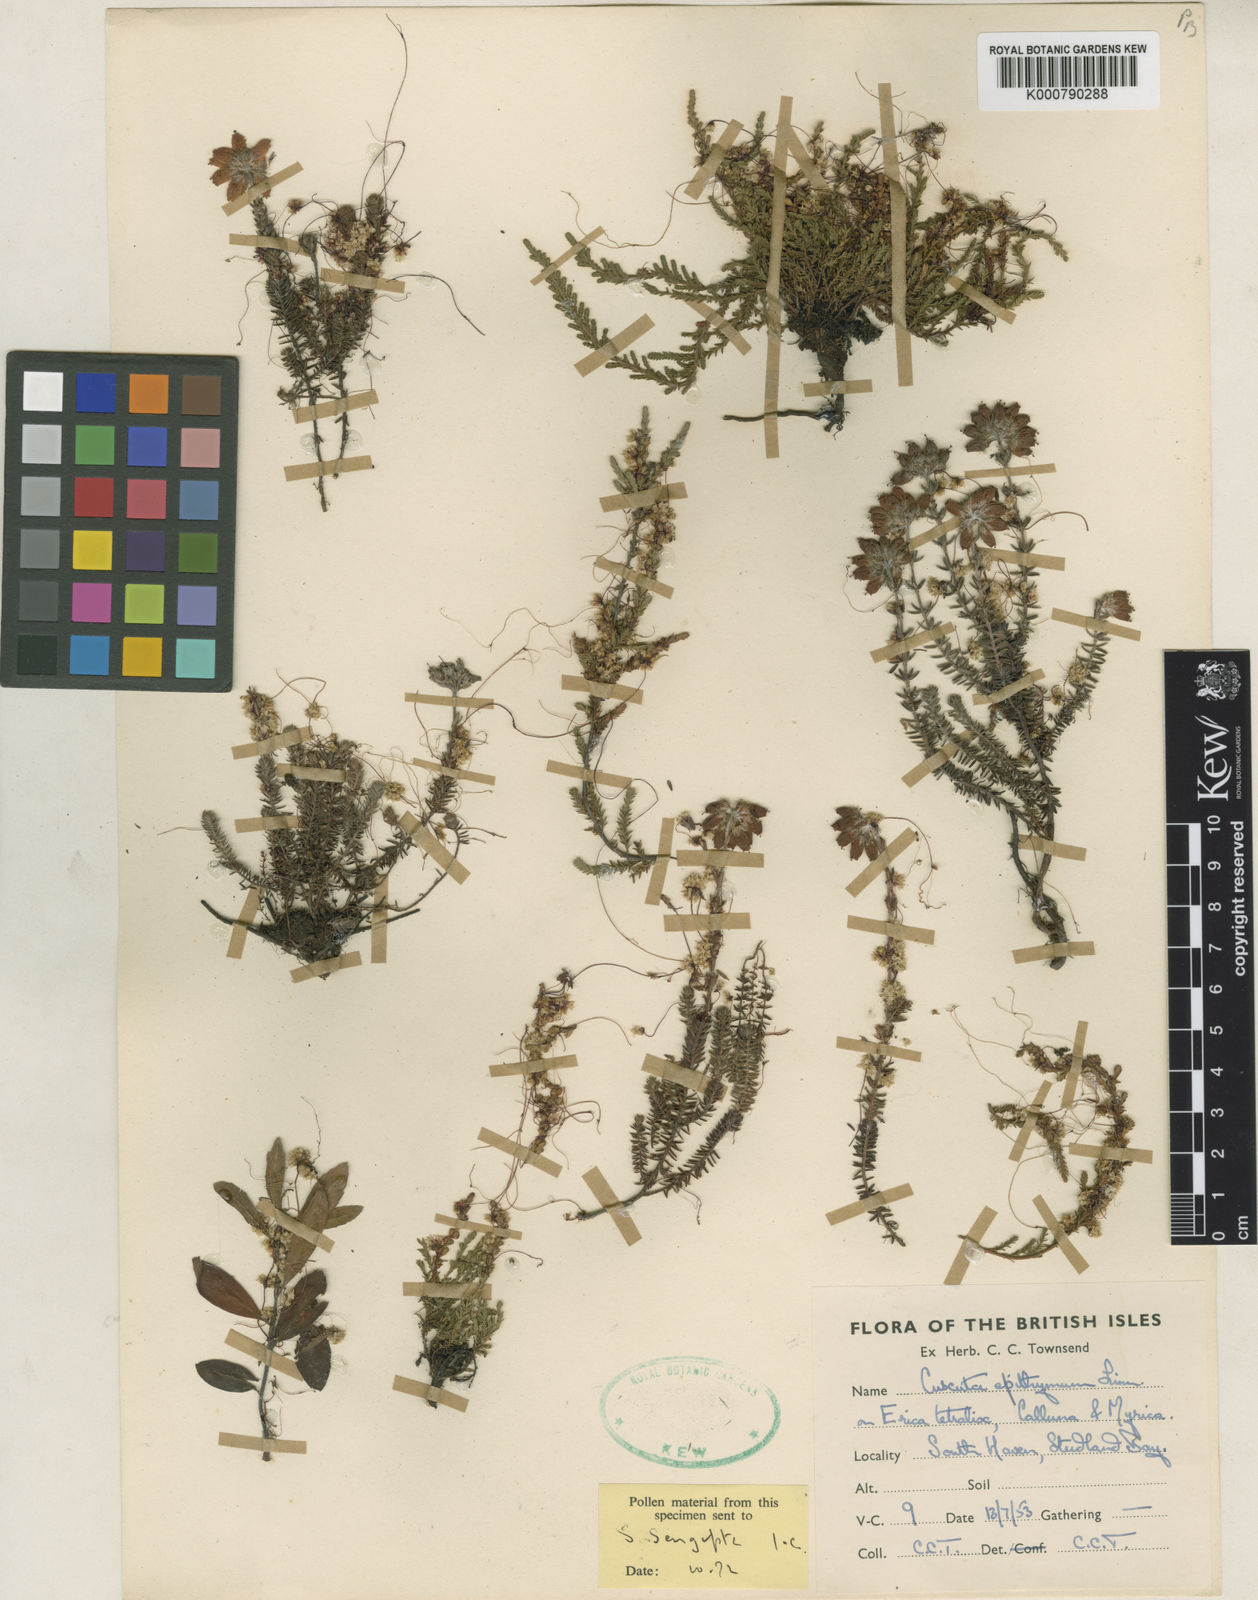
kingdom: Plantae
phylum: Tracheophyta
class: Magnoliopsida
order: Solanales
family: Convolvulaceae
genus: Cuscuta
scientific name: Cuscuta epithymum
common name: Clover dodder
